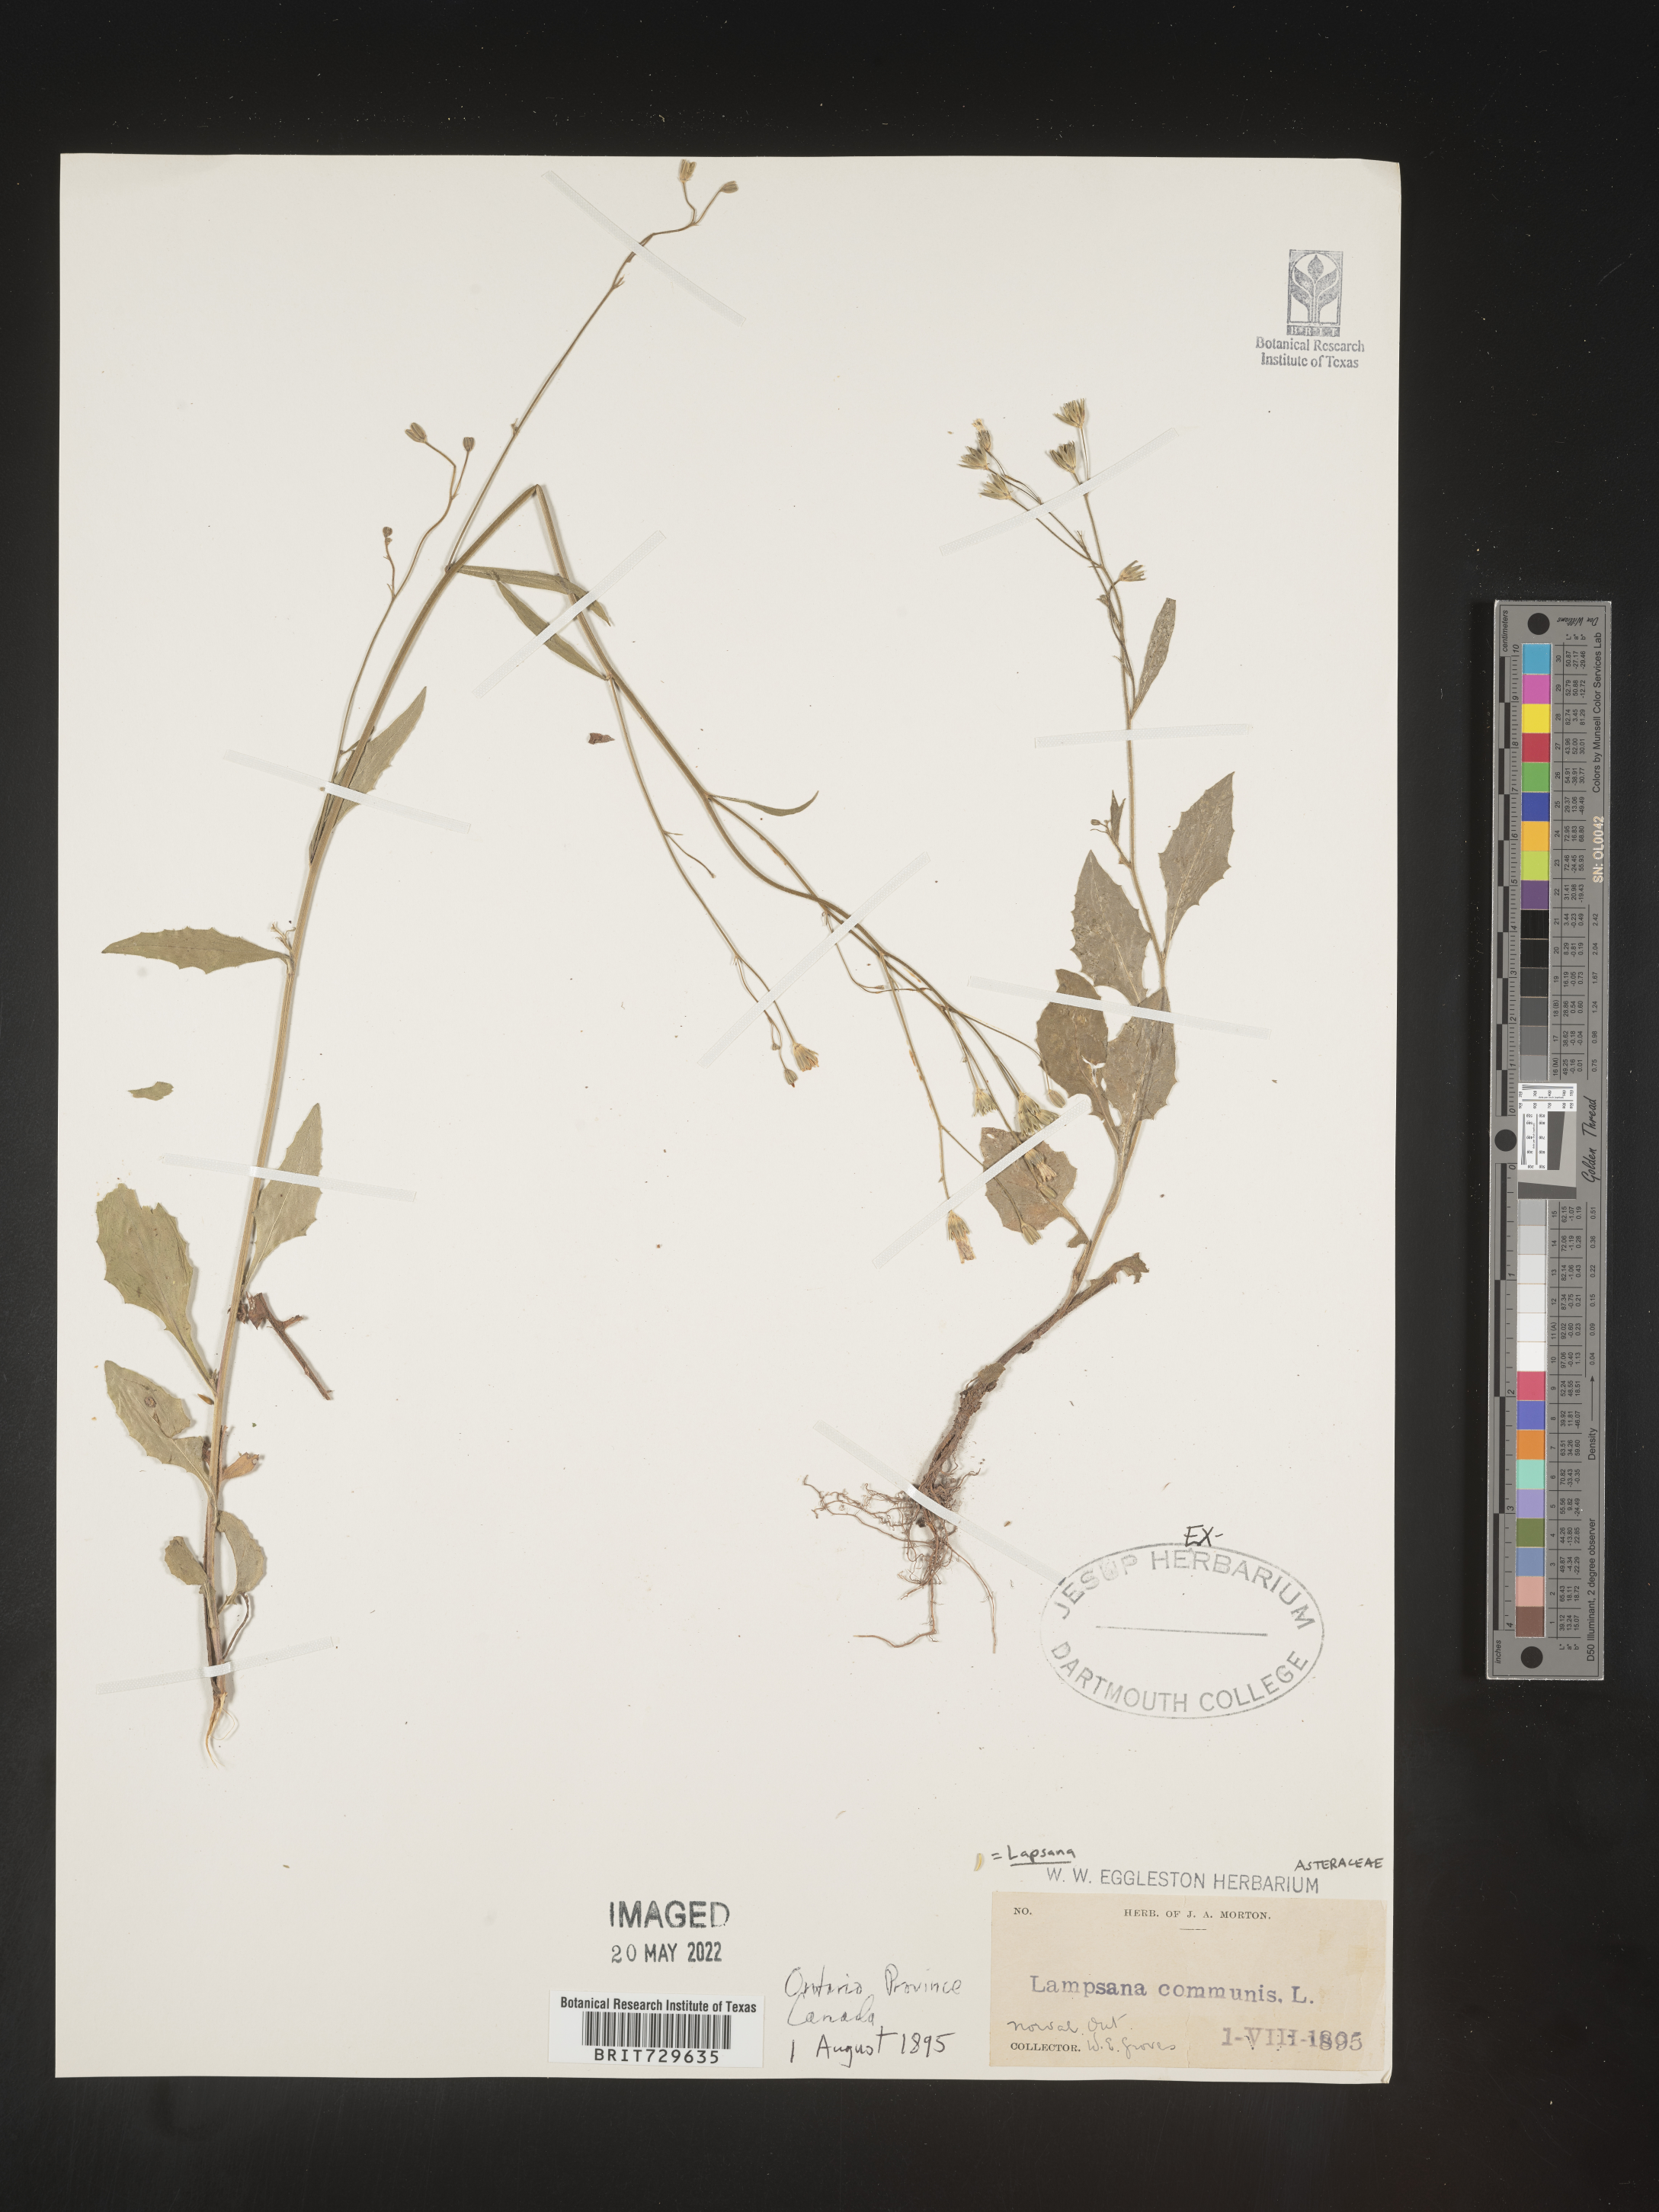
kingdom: Plantae
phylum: Tracheophyta
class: Magnoliopsida
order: Asterales
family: Asteraceae
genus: Lapsana
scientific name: Lapsana
